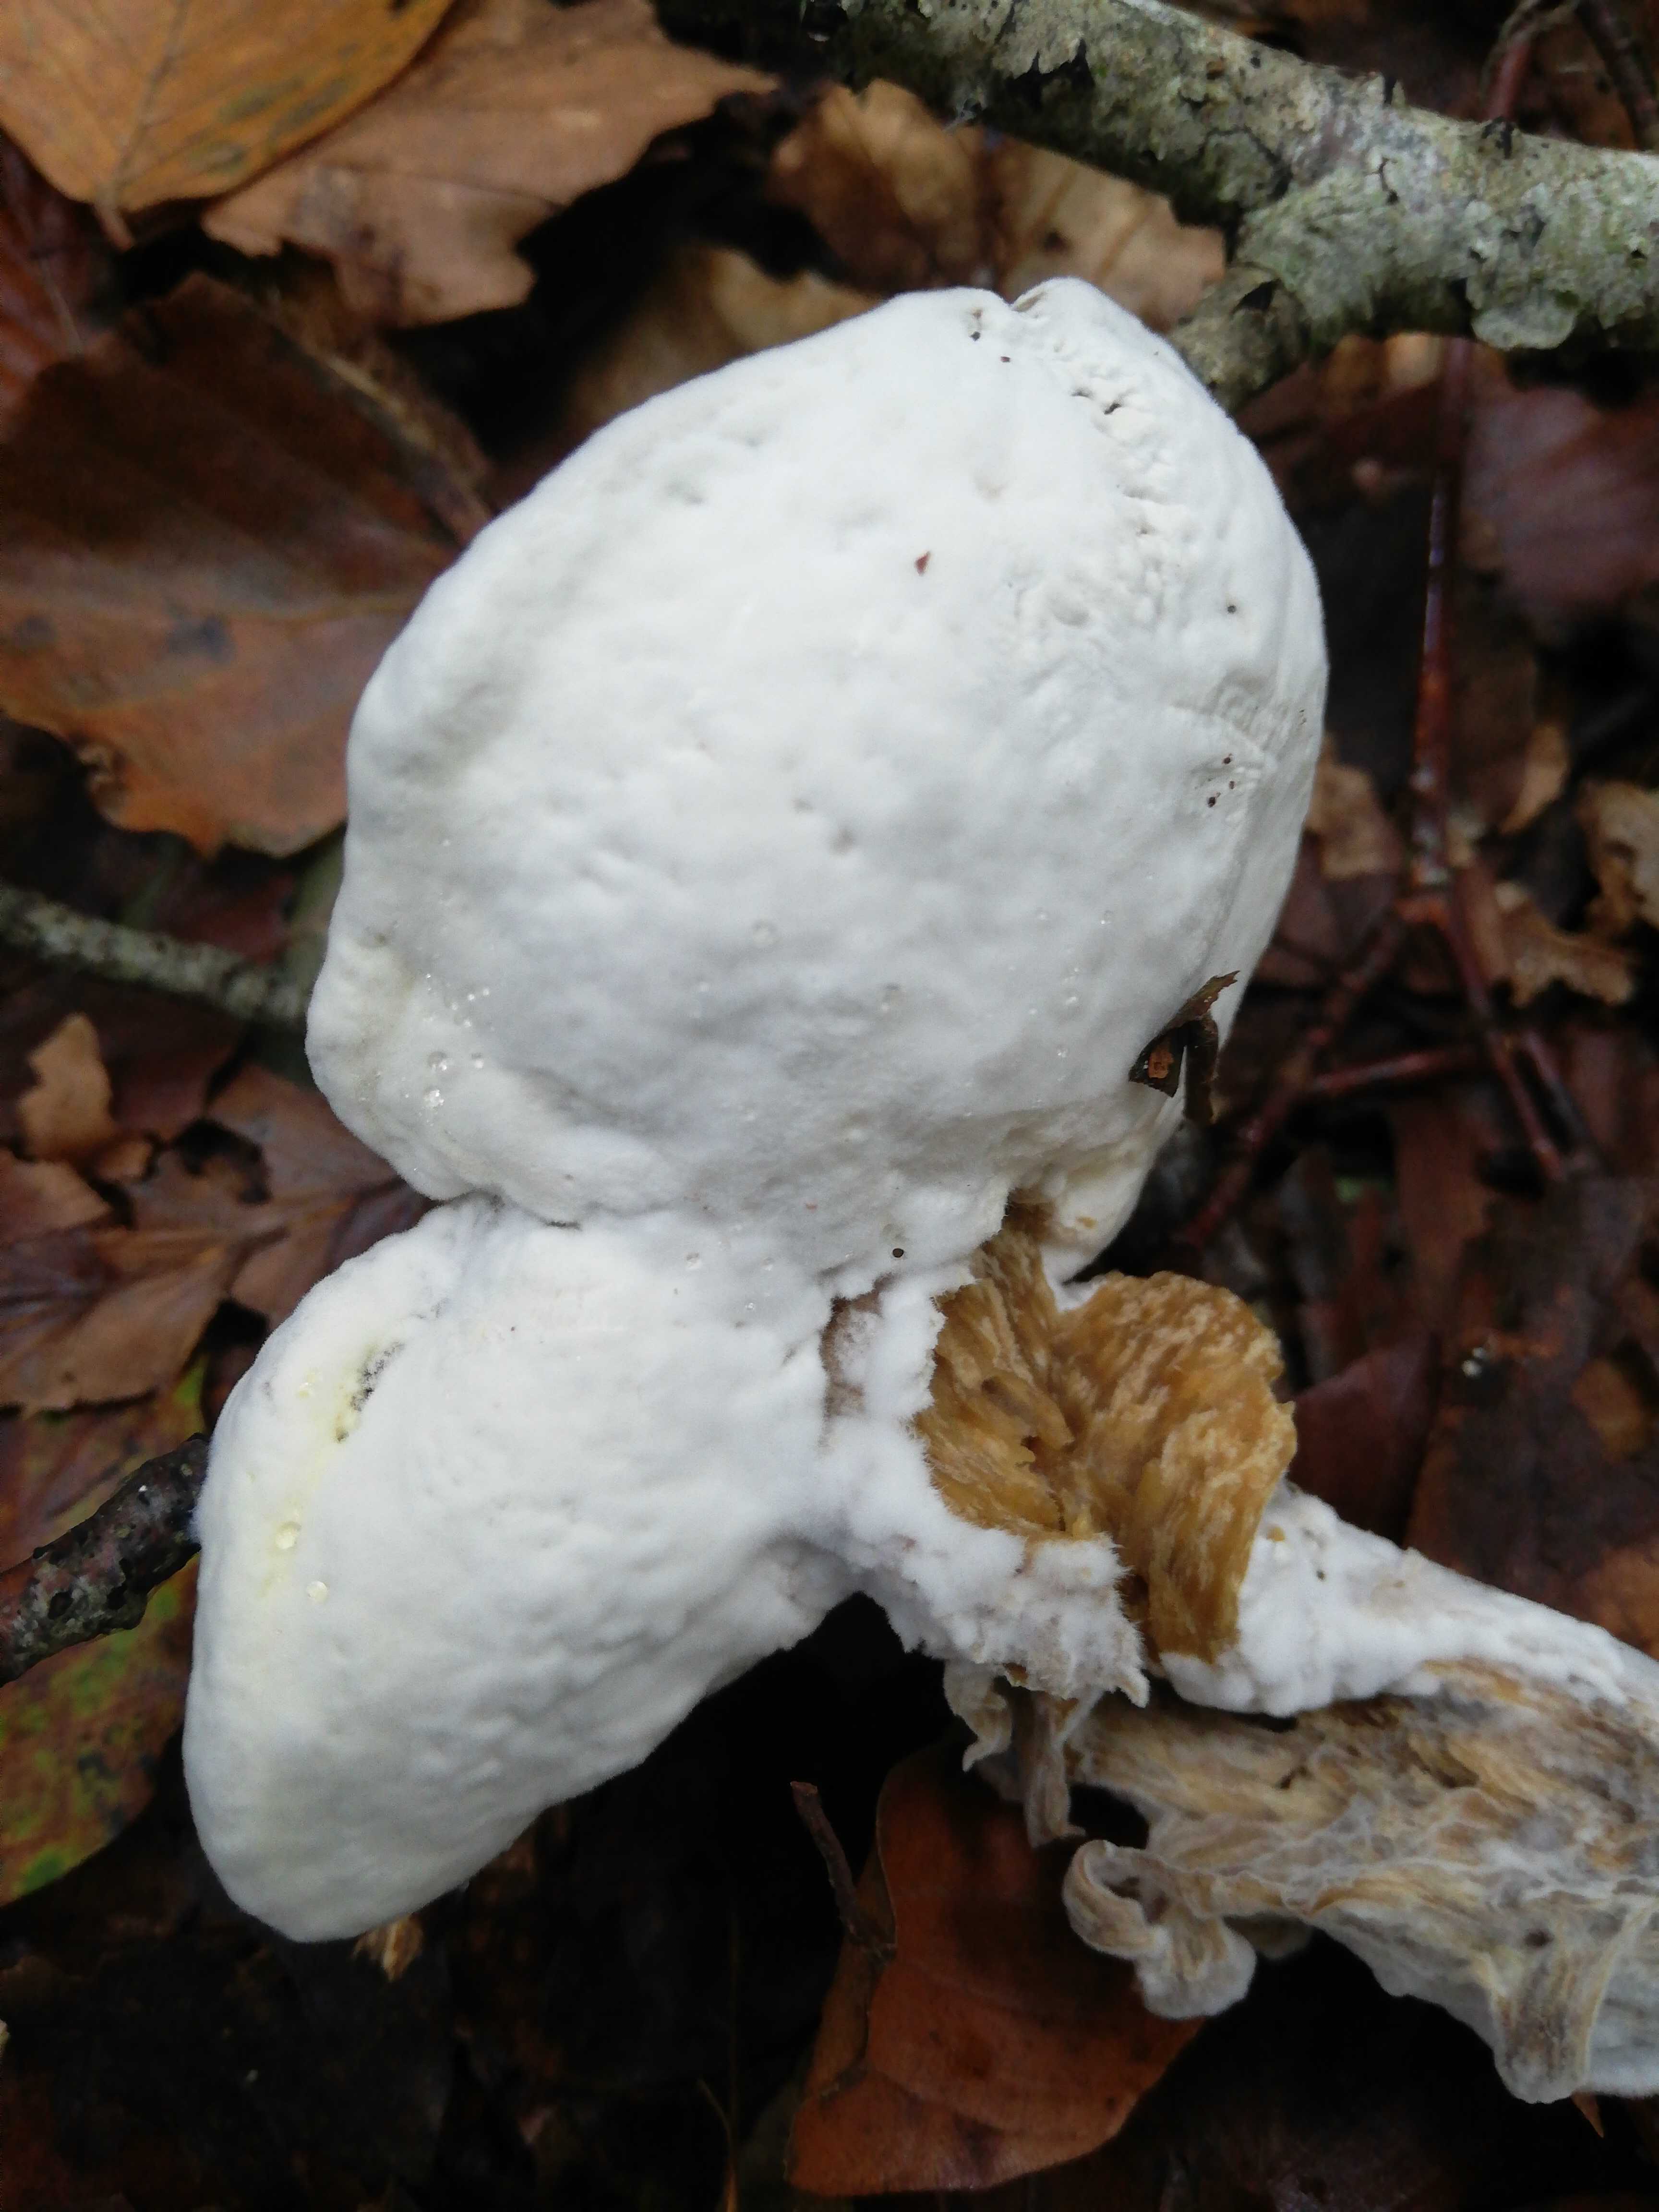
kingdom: Fungi
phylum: Ascomycota
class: Sordariomycetes
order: Hypocreales
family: Hypocreaceae
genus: Hypomyces
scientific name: Hypomyces
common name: snylteskorpe
